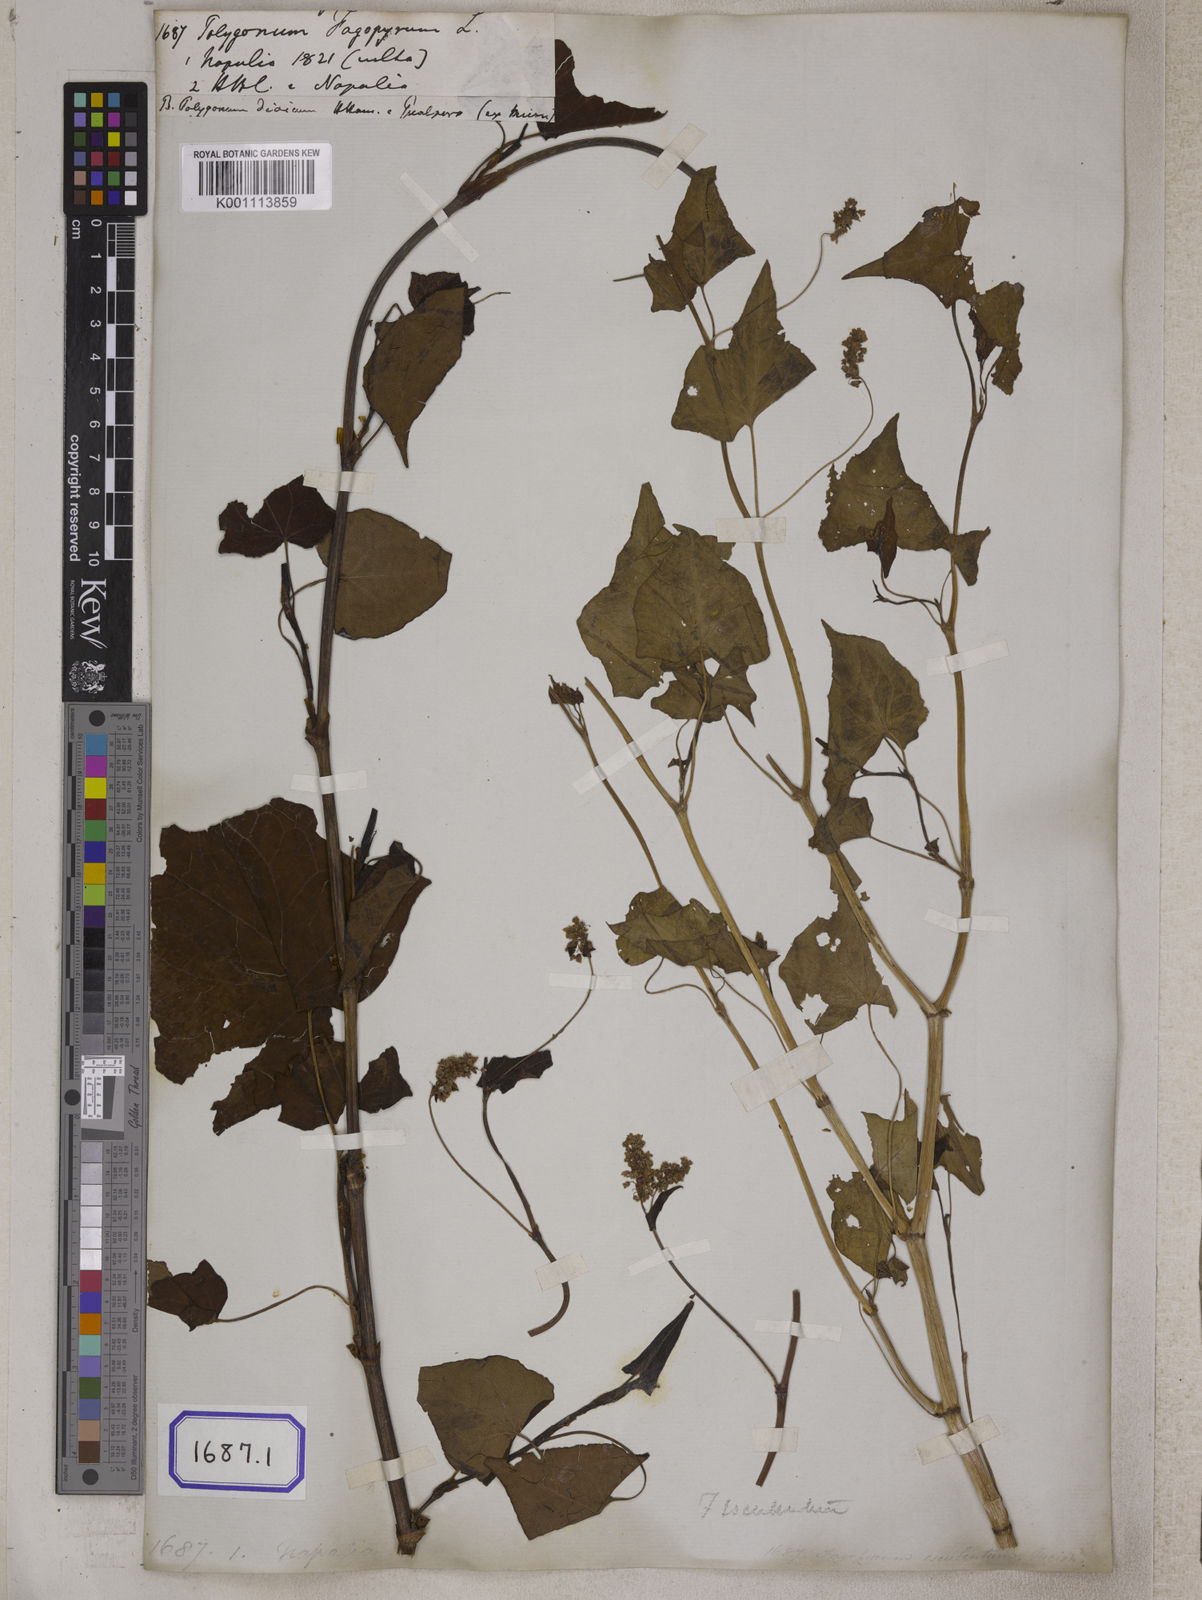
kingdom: Plantae
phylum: Tracheophyta
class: Magnoliopsida
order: Caryophyllales
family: Polygonaceae
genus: Fagopyrum
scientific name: Fagopyrum esculentum
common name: Buckwheat
